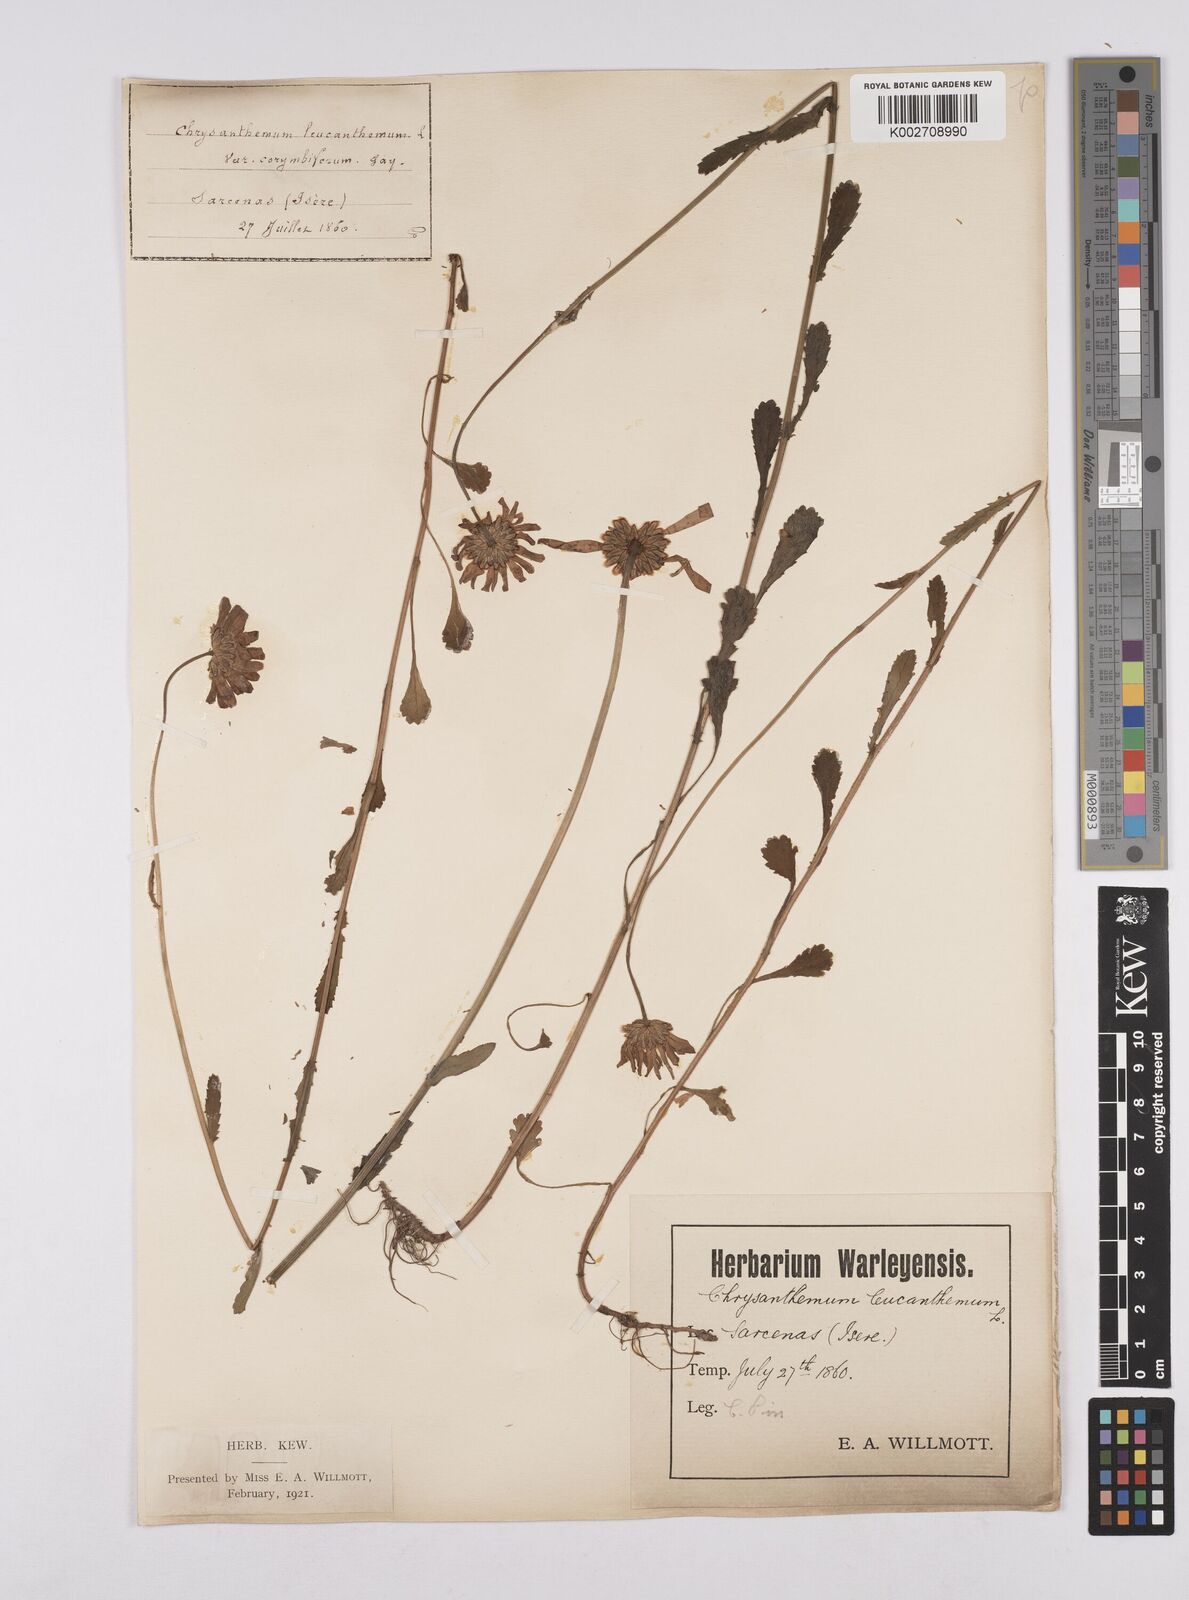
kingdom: Plantae
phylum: Tracheophyta
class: Magnoliopsida
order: Asterales
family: Asteraceae
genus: Leucanthemum
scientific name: Leucanthemum vulgare
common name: Oxeye daisy
